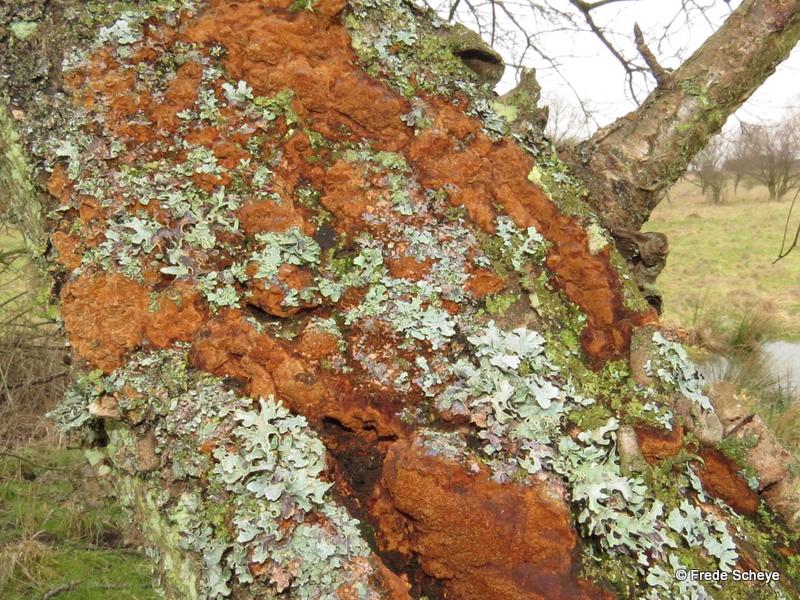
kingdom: Fungi
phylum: Basidiomycota
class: Agaricomycetes
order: Hymenochaetales
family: Hymenochaetaceae
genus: Fuscoporia
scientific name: Fuscoporia ferruginosa
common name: rustbrun ildporesvamp
